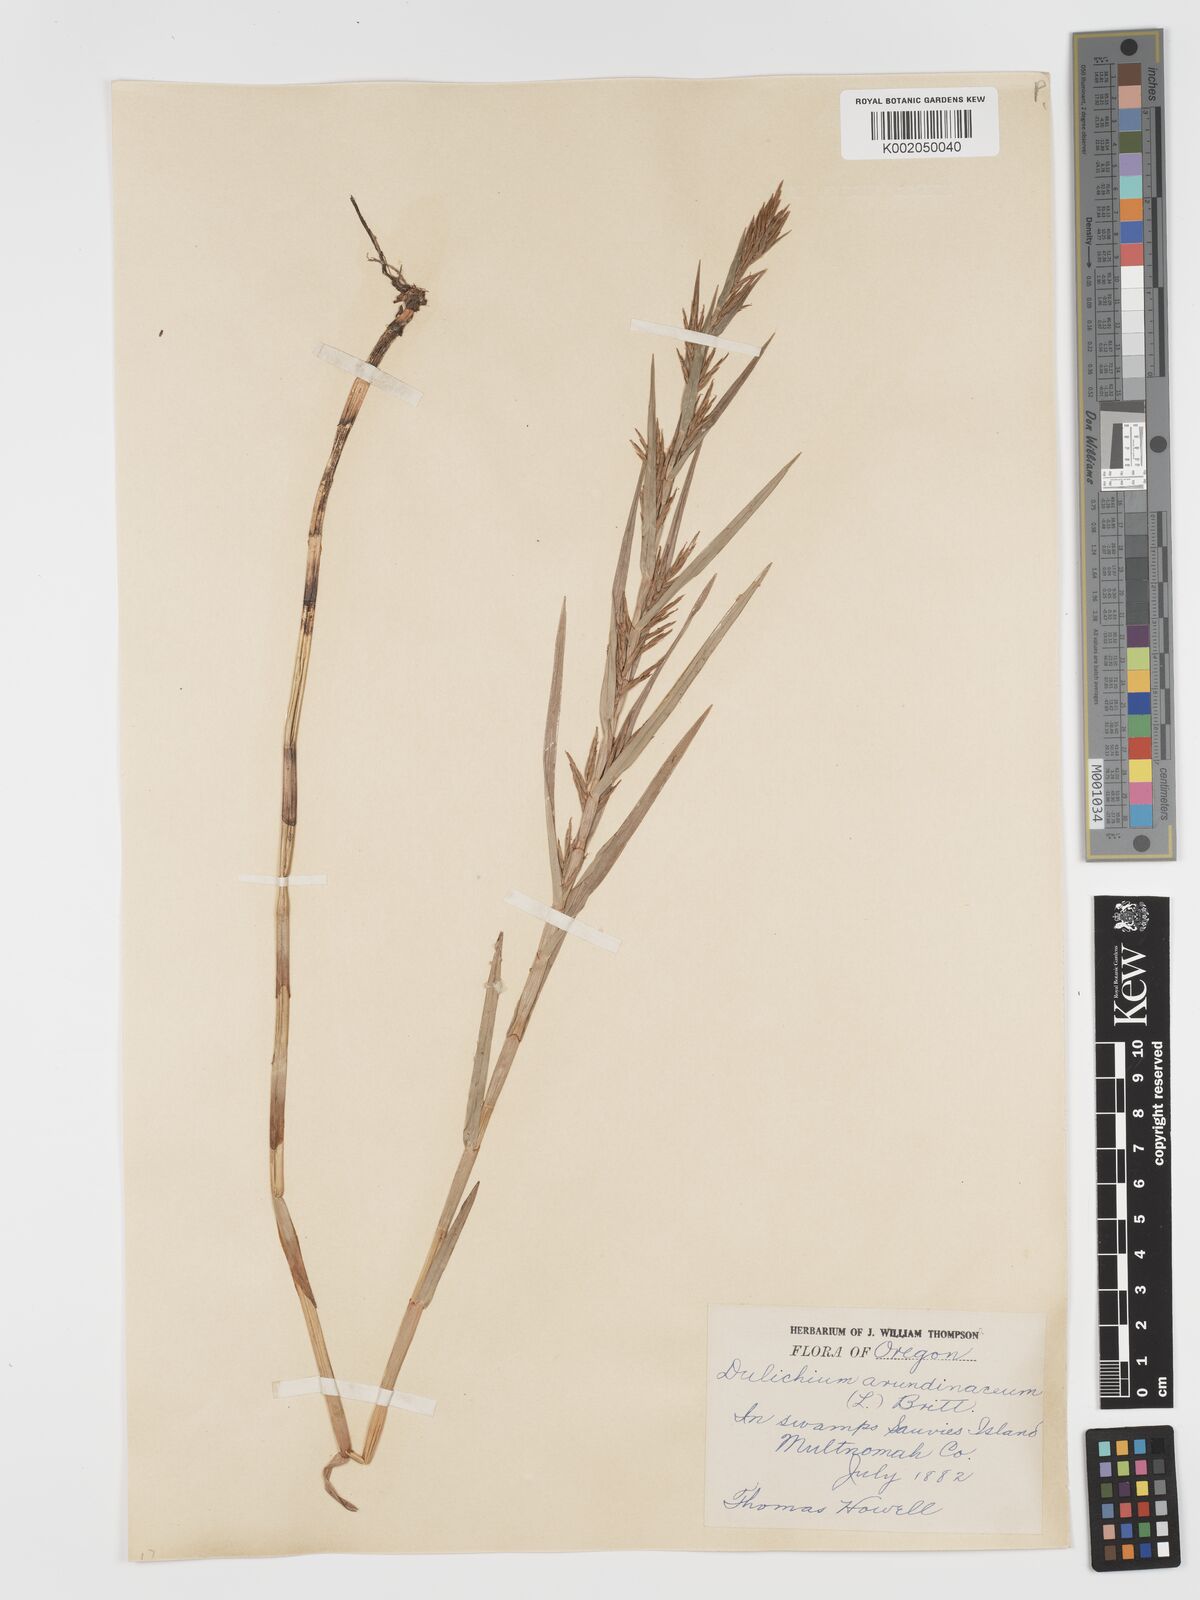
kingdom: Plantae
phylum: Tracheophyta
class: Liliopsida
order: Poales
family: Cyperaceae
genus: Dulichium
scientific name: Dulichium arundinaceum
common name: Three-way sedge
